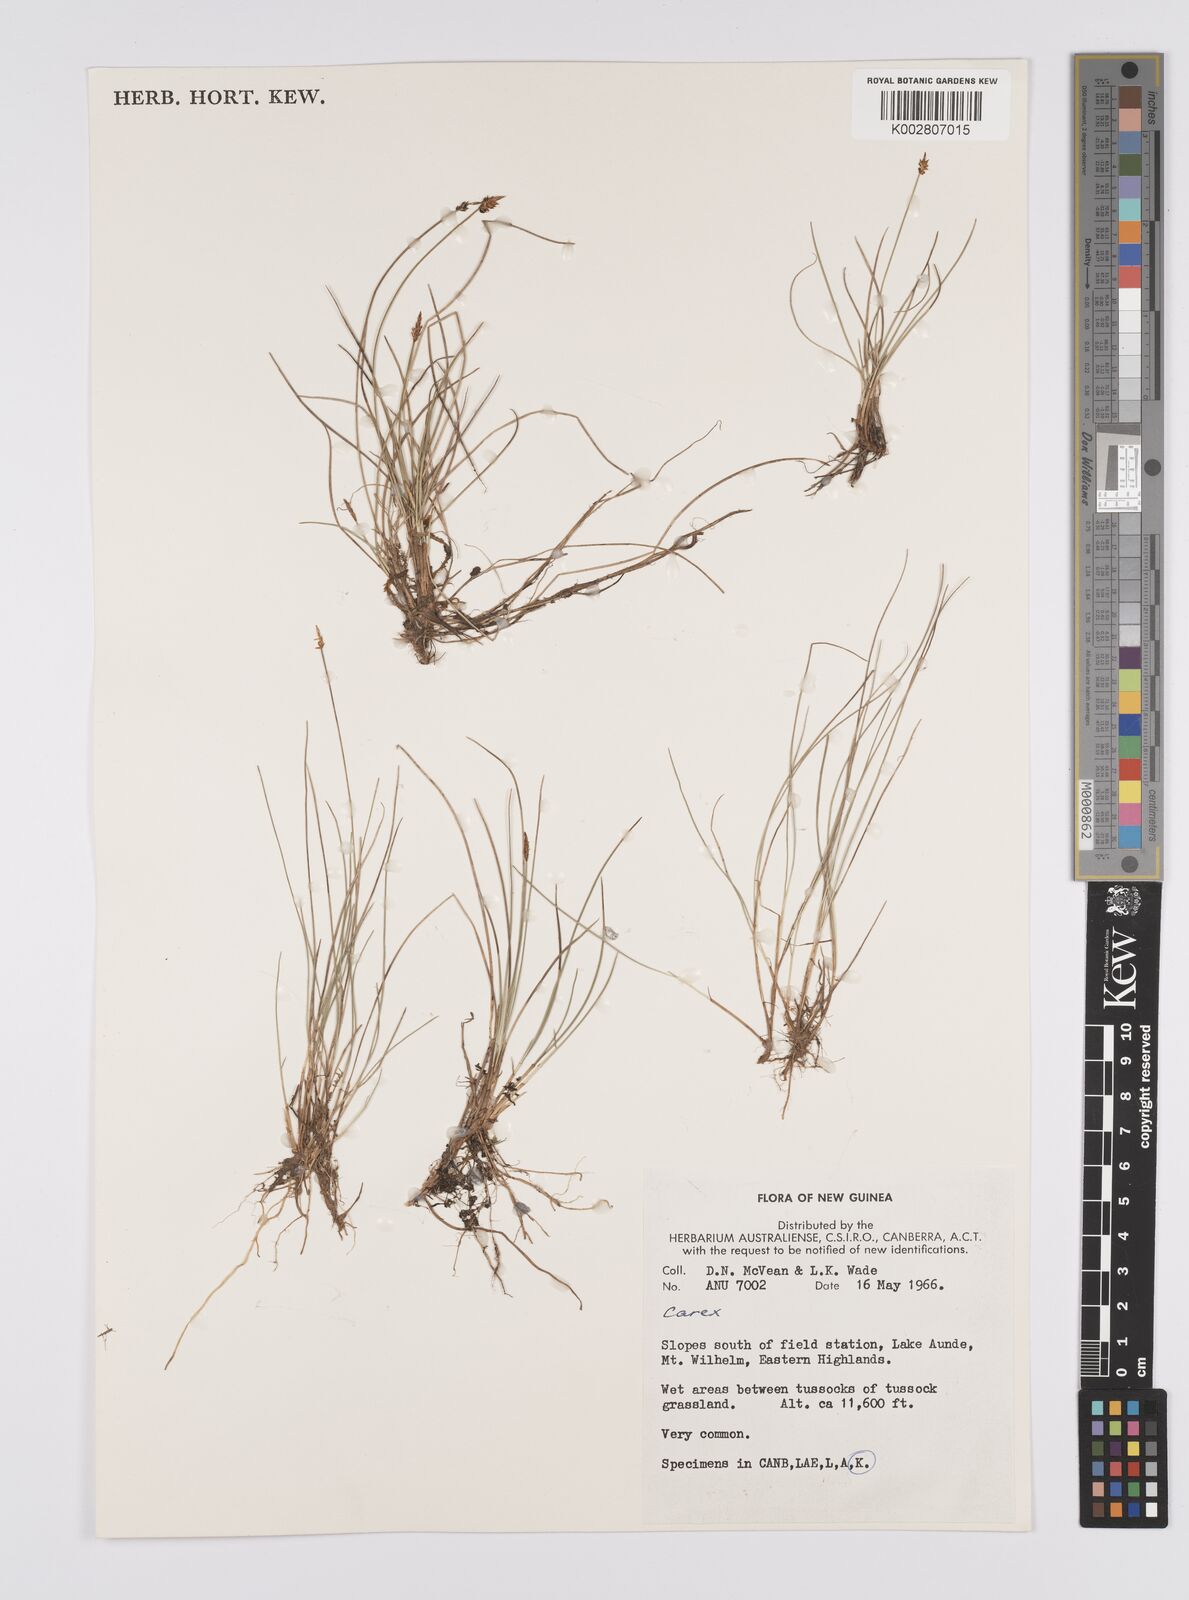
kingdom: Plantae
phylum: Tracheophyta
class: Liliopsida
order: Poales
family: Cyperaceae
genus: Carex
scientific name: Carex capillacea
